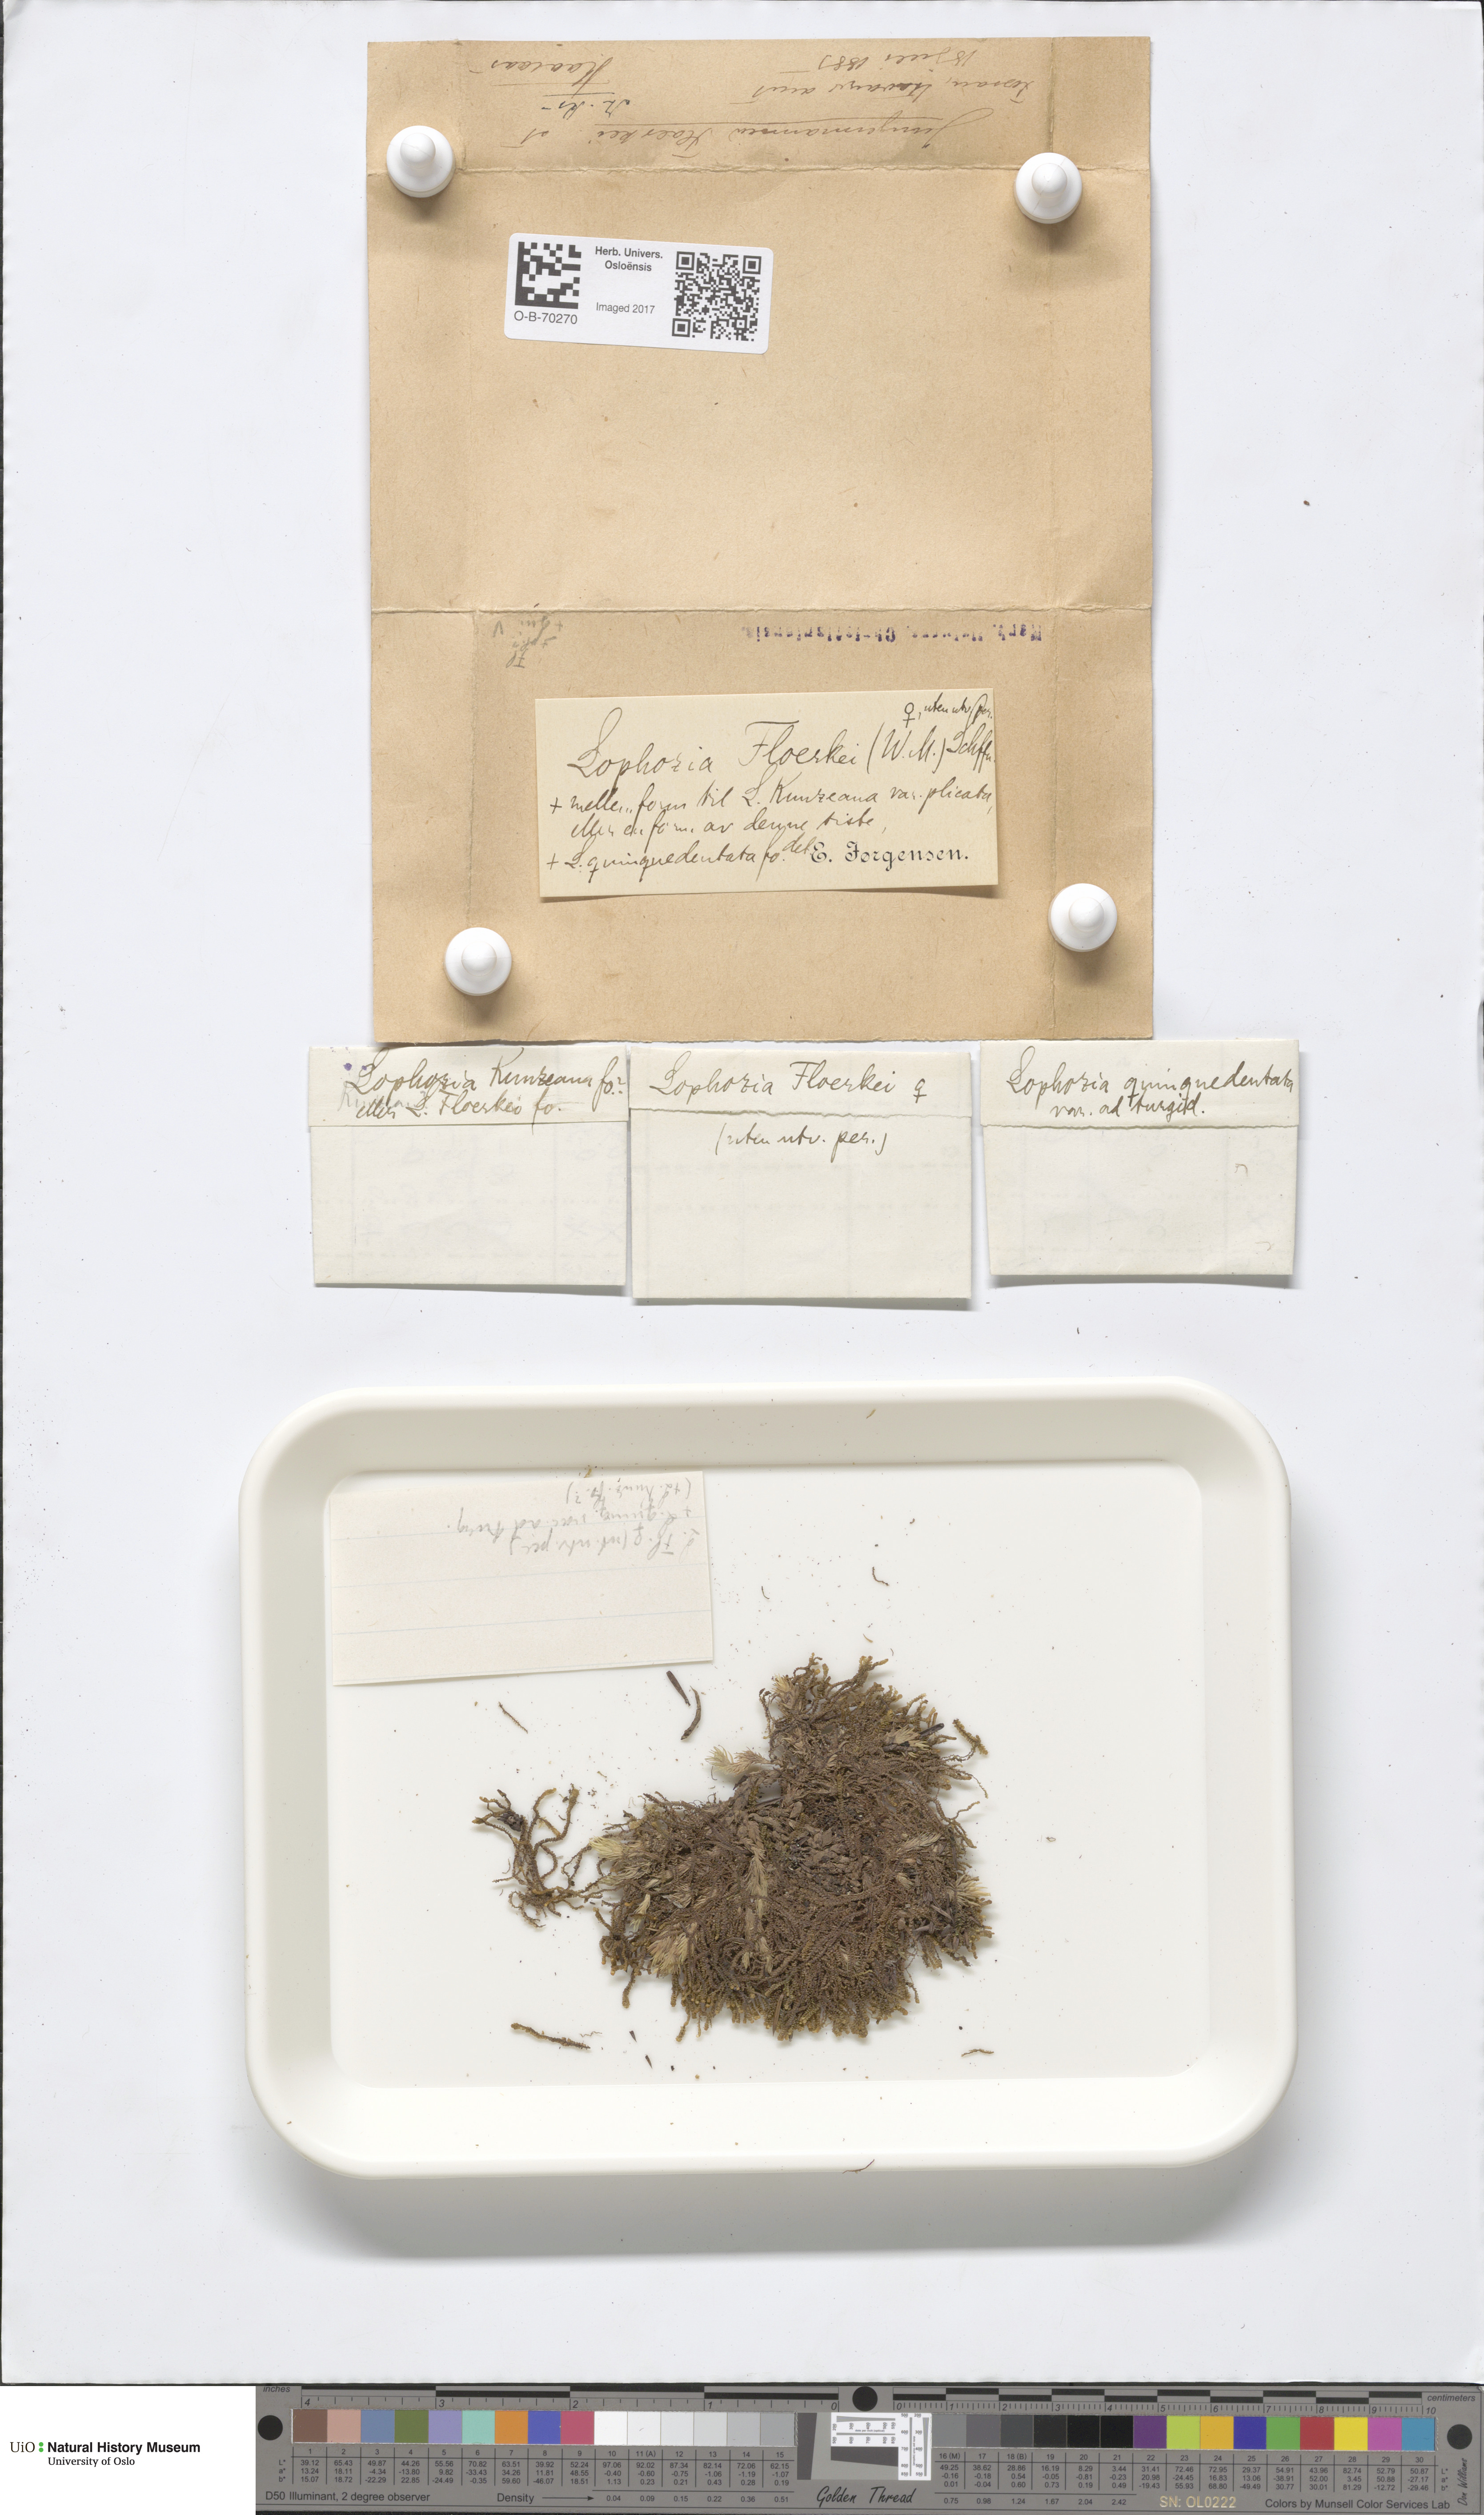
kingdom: Plantae
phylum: Marchantiophyta
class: Jungermanniopsida
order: Jungermanniales
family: Anastrophyllaceae
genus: Neoorthocaulis
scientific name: Neoorthocaulis floerkei
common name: Floerke's barbilophozia
